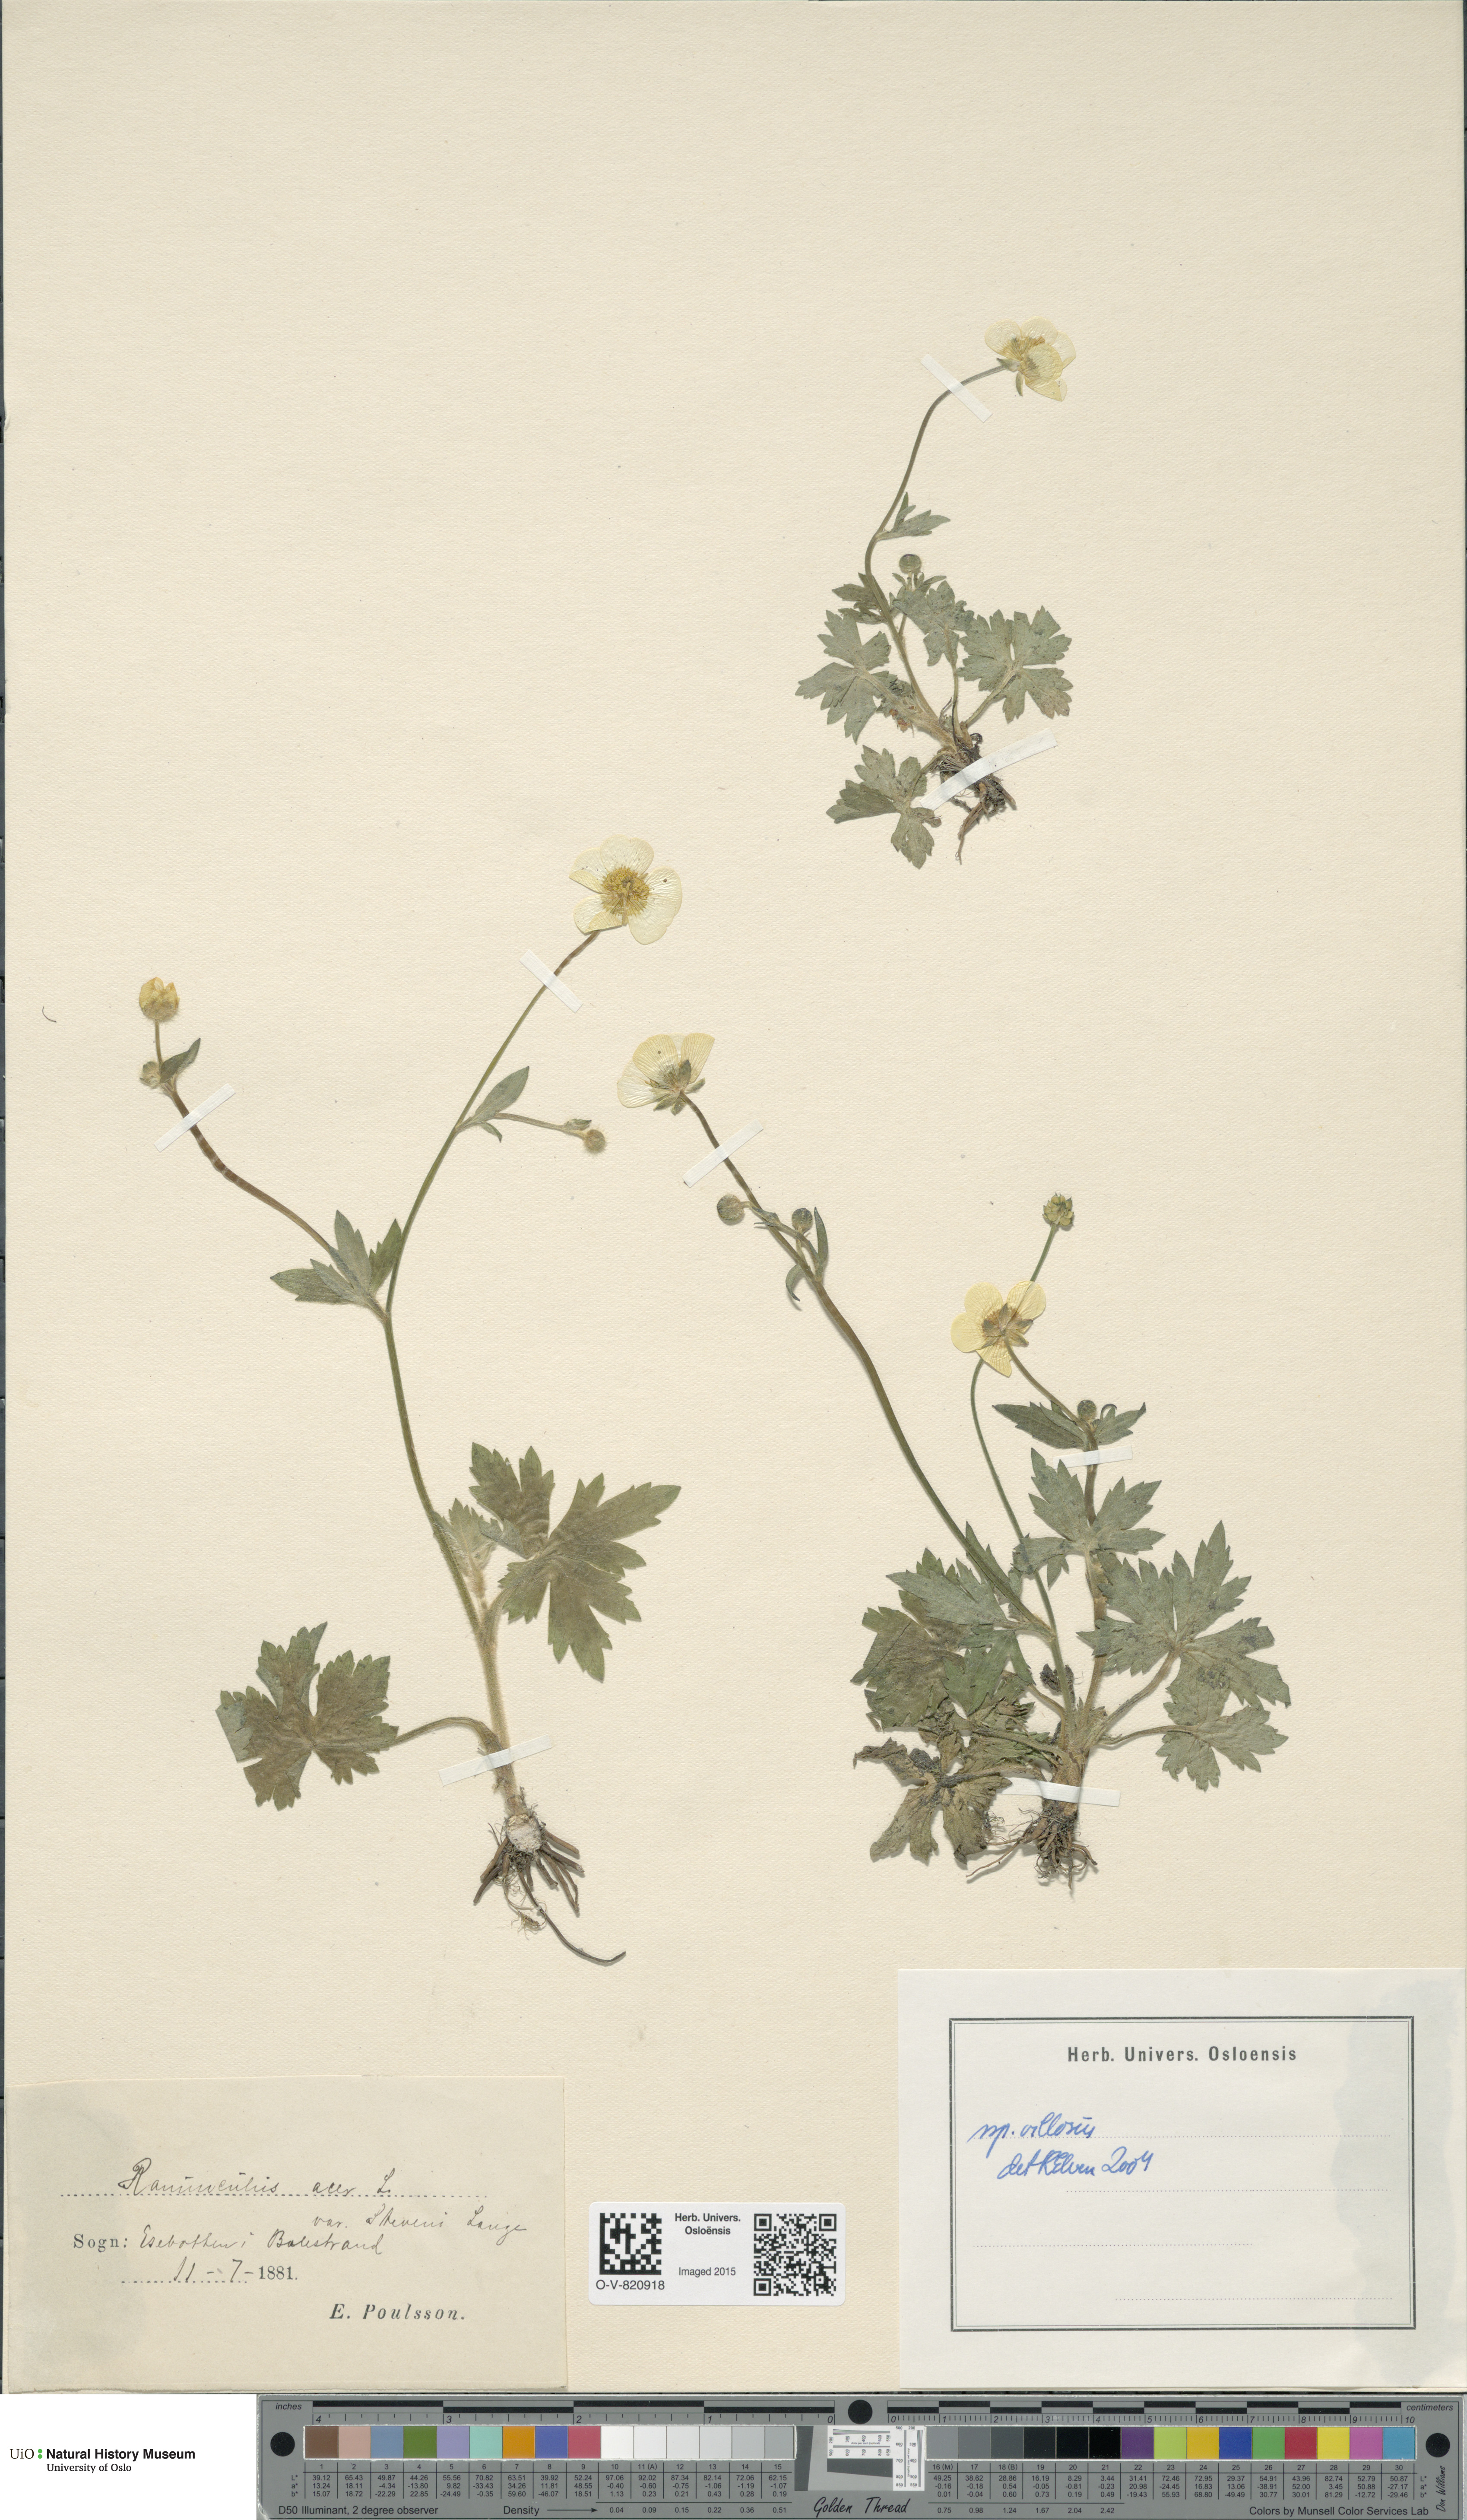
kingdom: Plantae
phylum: Tracheophyta
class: Magnoliopsida
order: Ranunculales
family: Ranunculaceae
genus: Ranunculus
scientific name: Ranunculus propinquus
